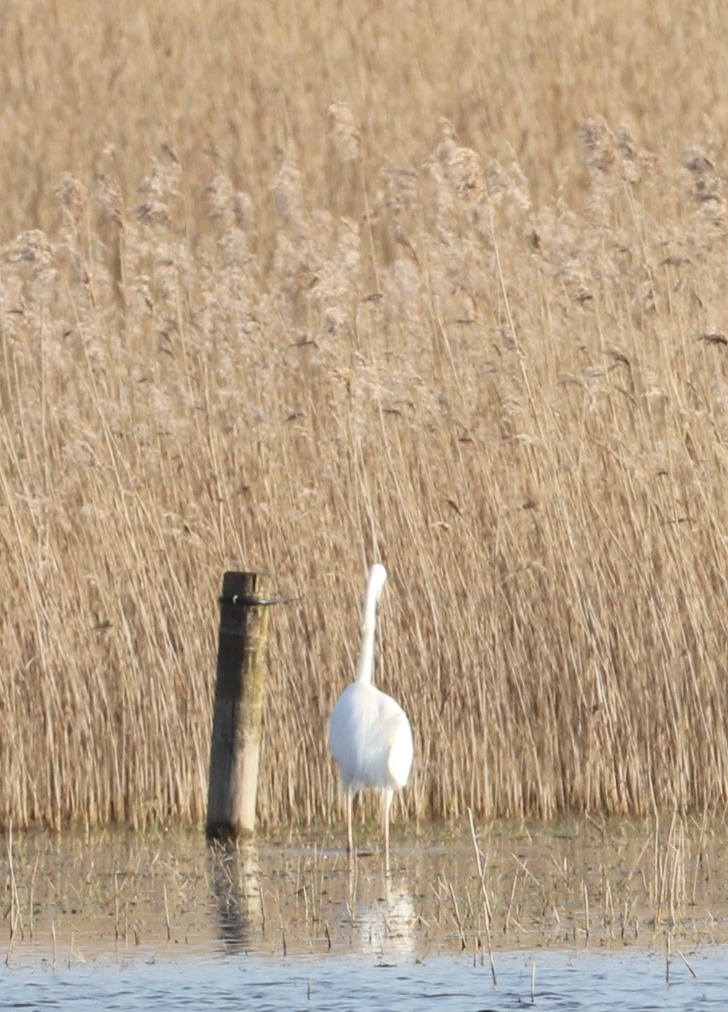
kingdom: Animalia
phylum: Chordata
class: Aves
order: Pelecaniformes
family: Ardeidae
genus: Ardea
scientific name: Ardea alba
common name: Sølvhejre
